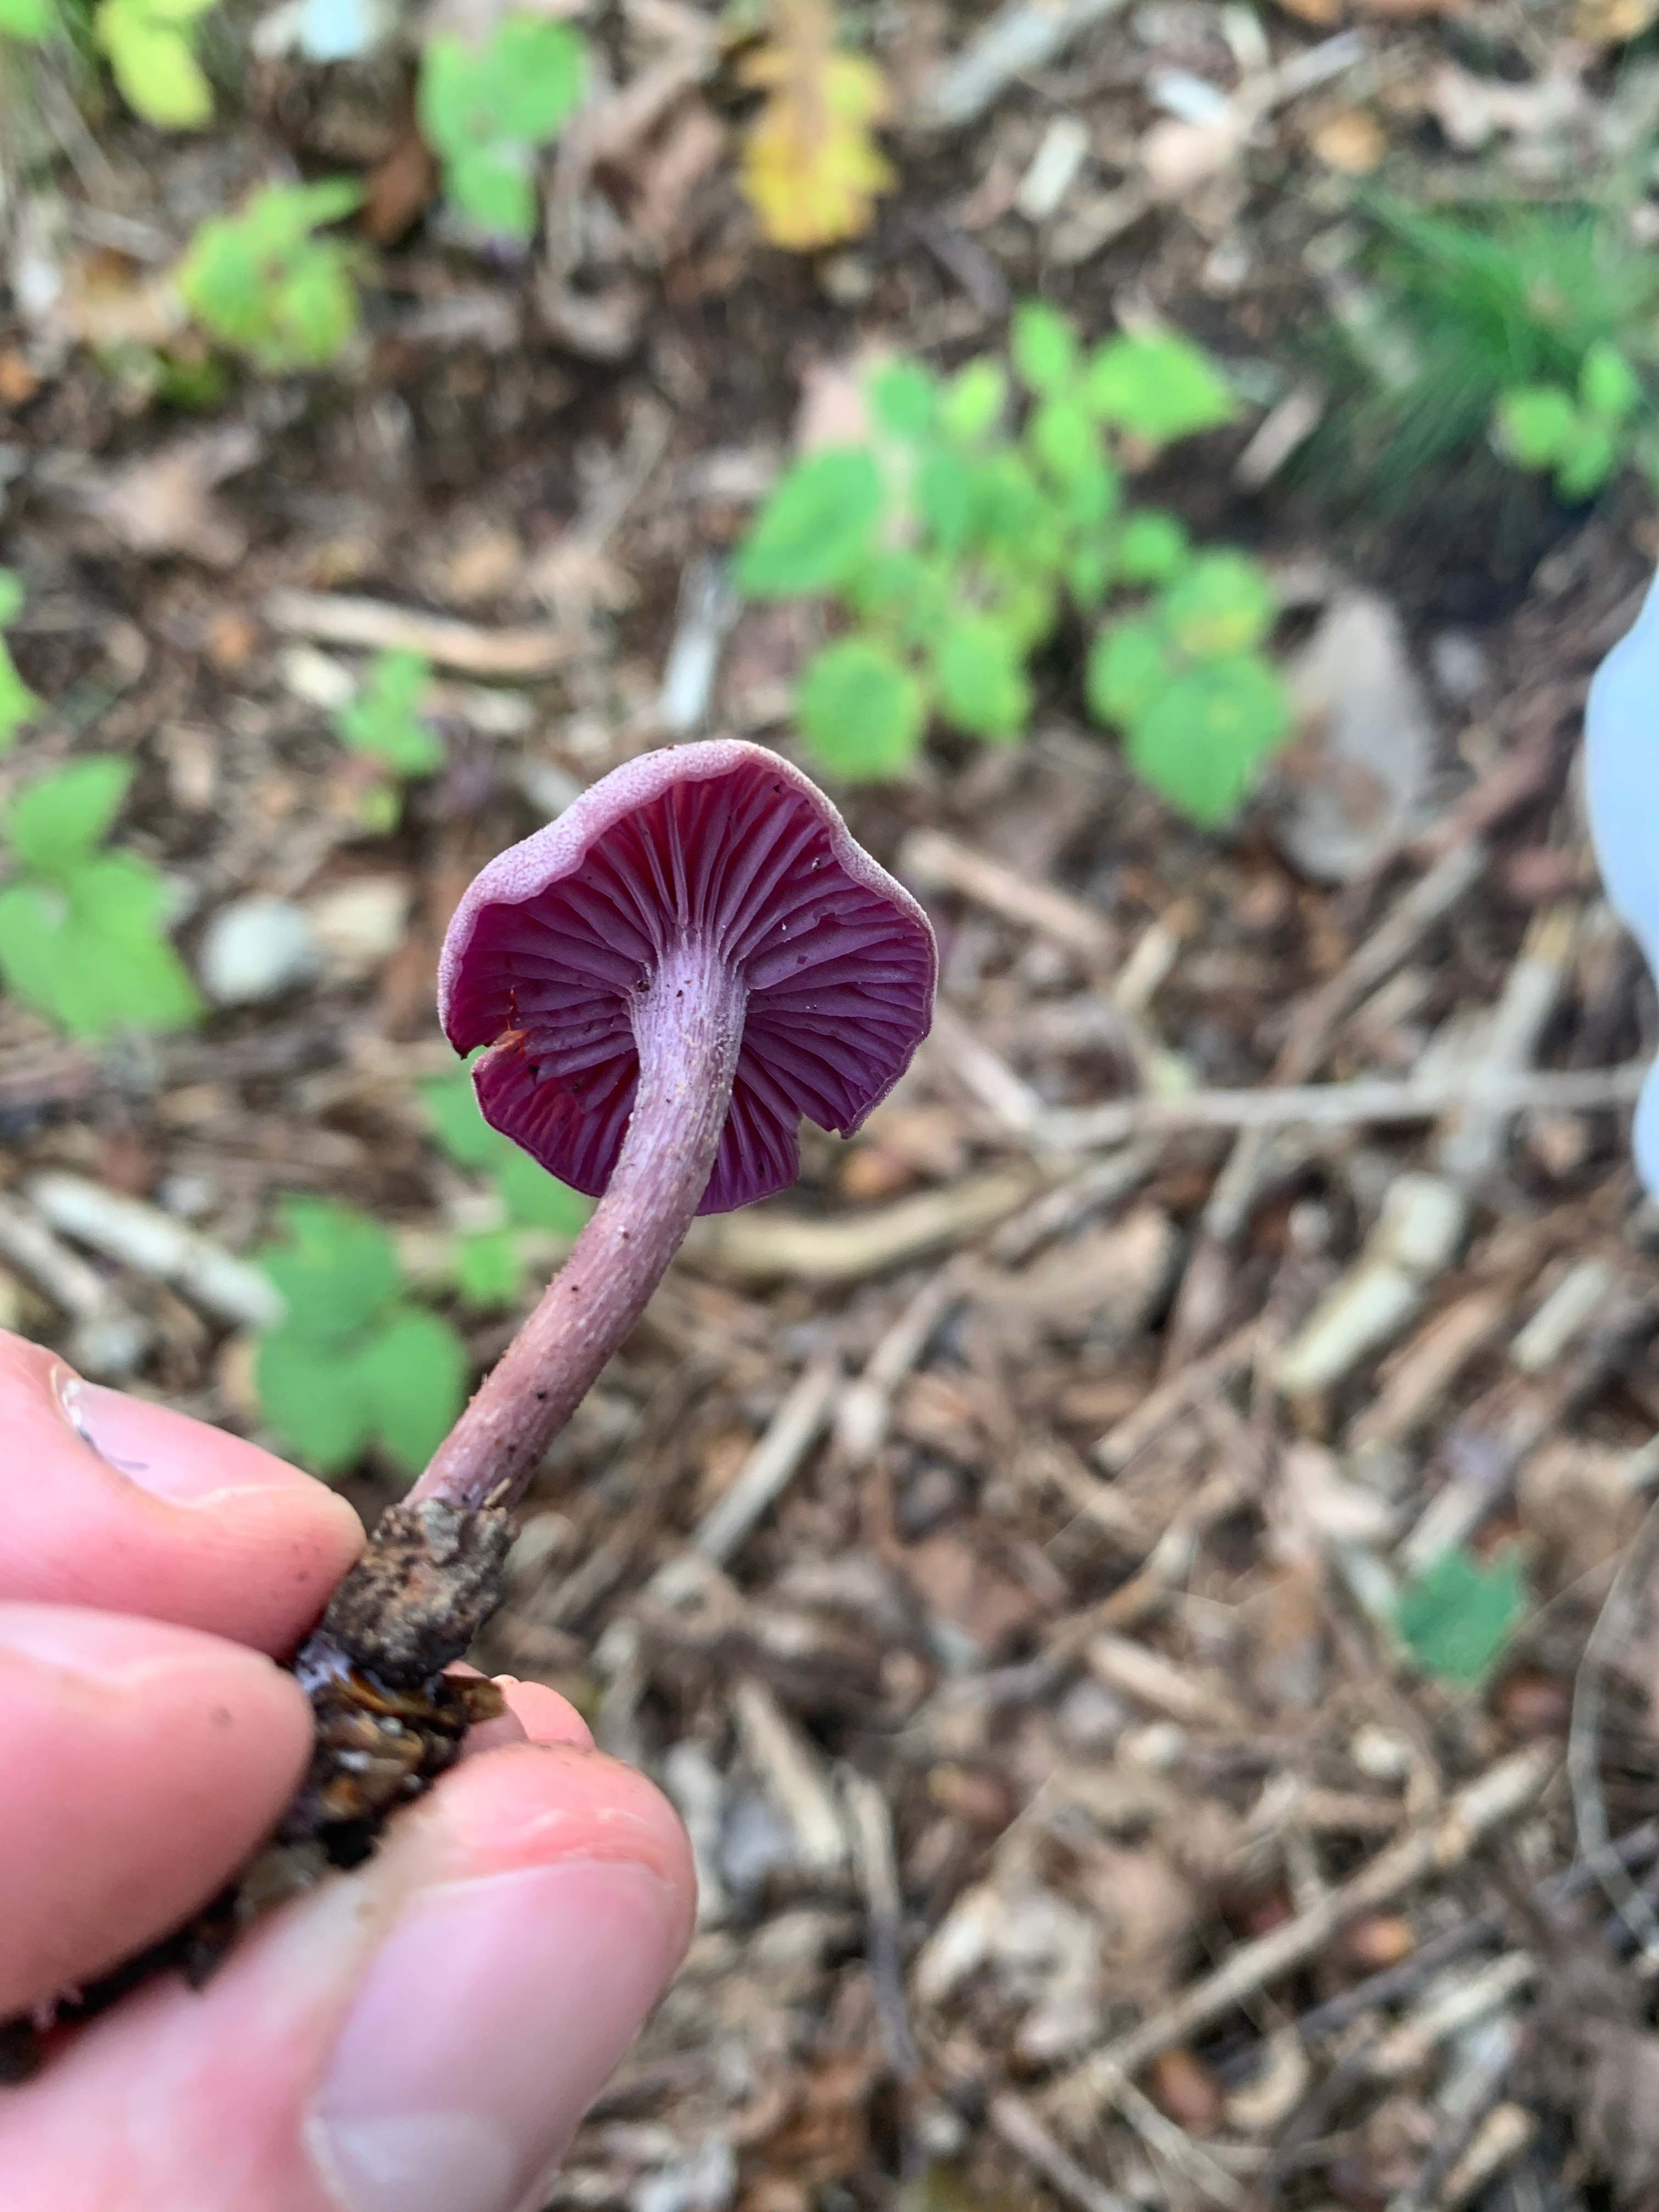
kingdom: Fungi
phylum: Basidiomycota
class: Agaricomycetes
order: Agaricales
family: Hydnangiaceae
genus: Laccaria
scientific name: Laccaria amethystina
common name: violet ametysthat
